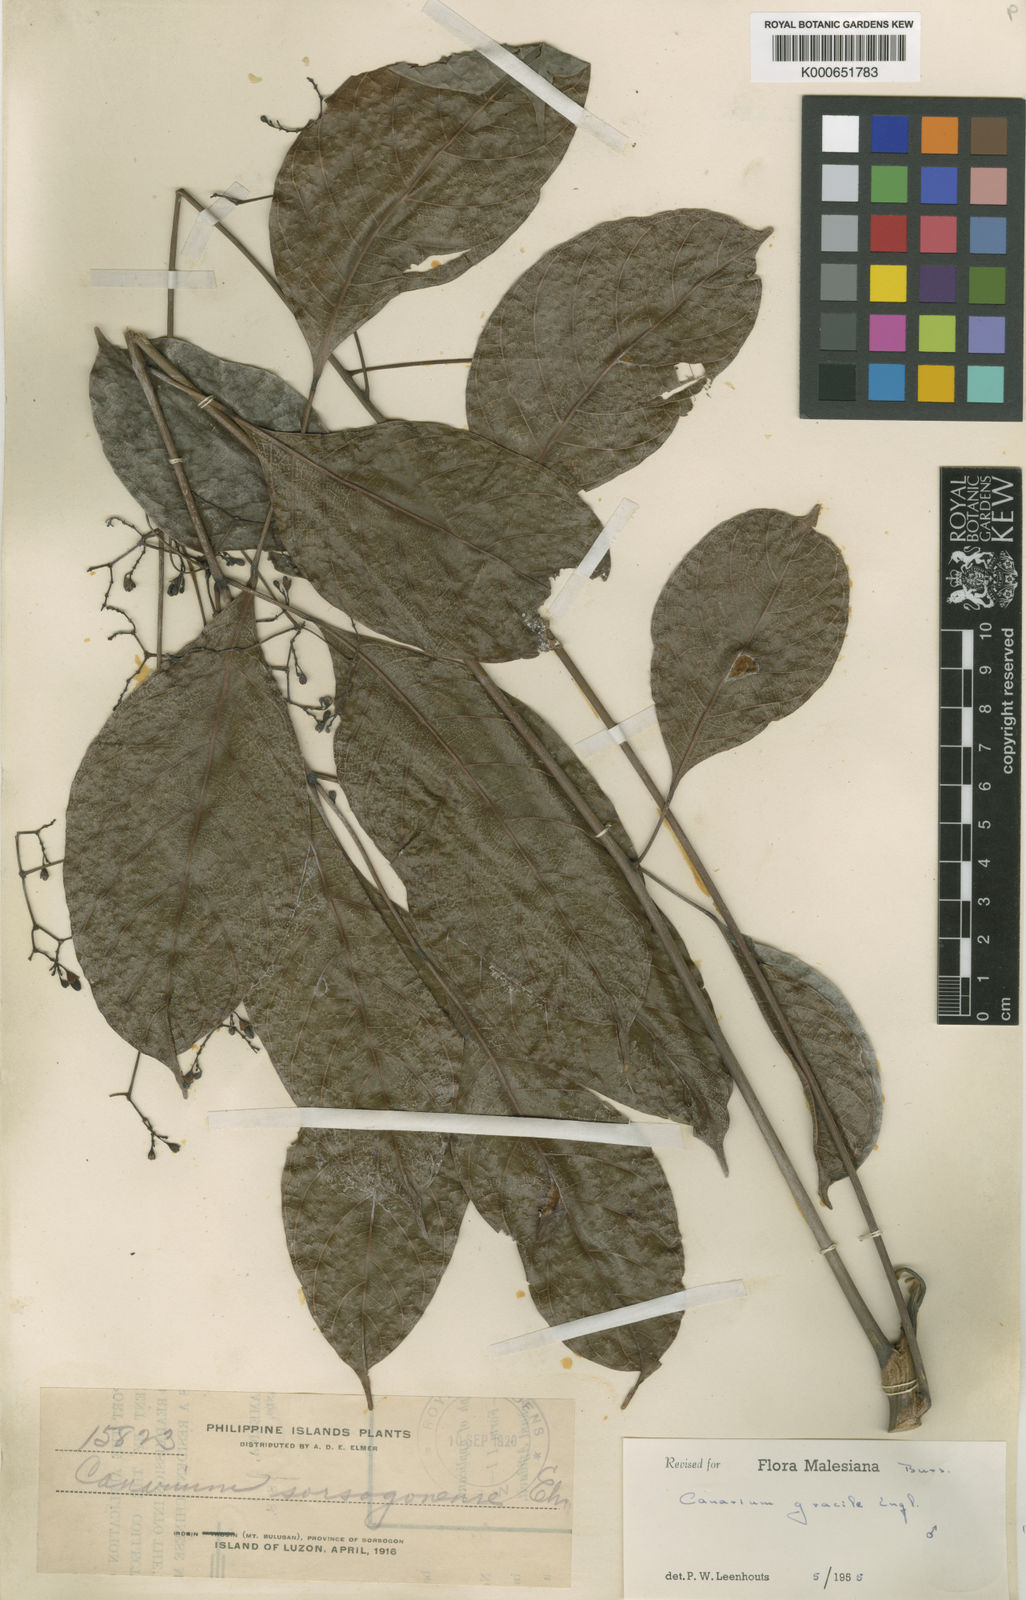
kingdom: Plantae
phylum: Tracheophyta
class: Magnoliopsida
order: Sapindales
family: Burseraceae
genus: Canarium
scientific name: Canarium gracile
